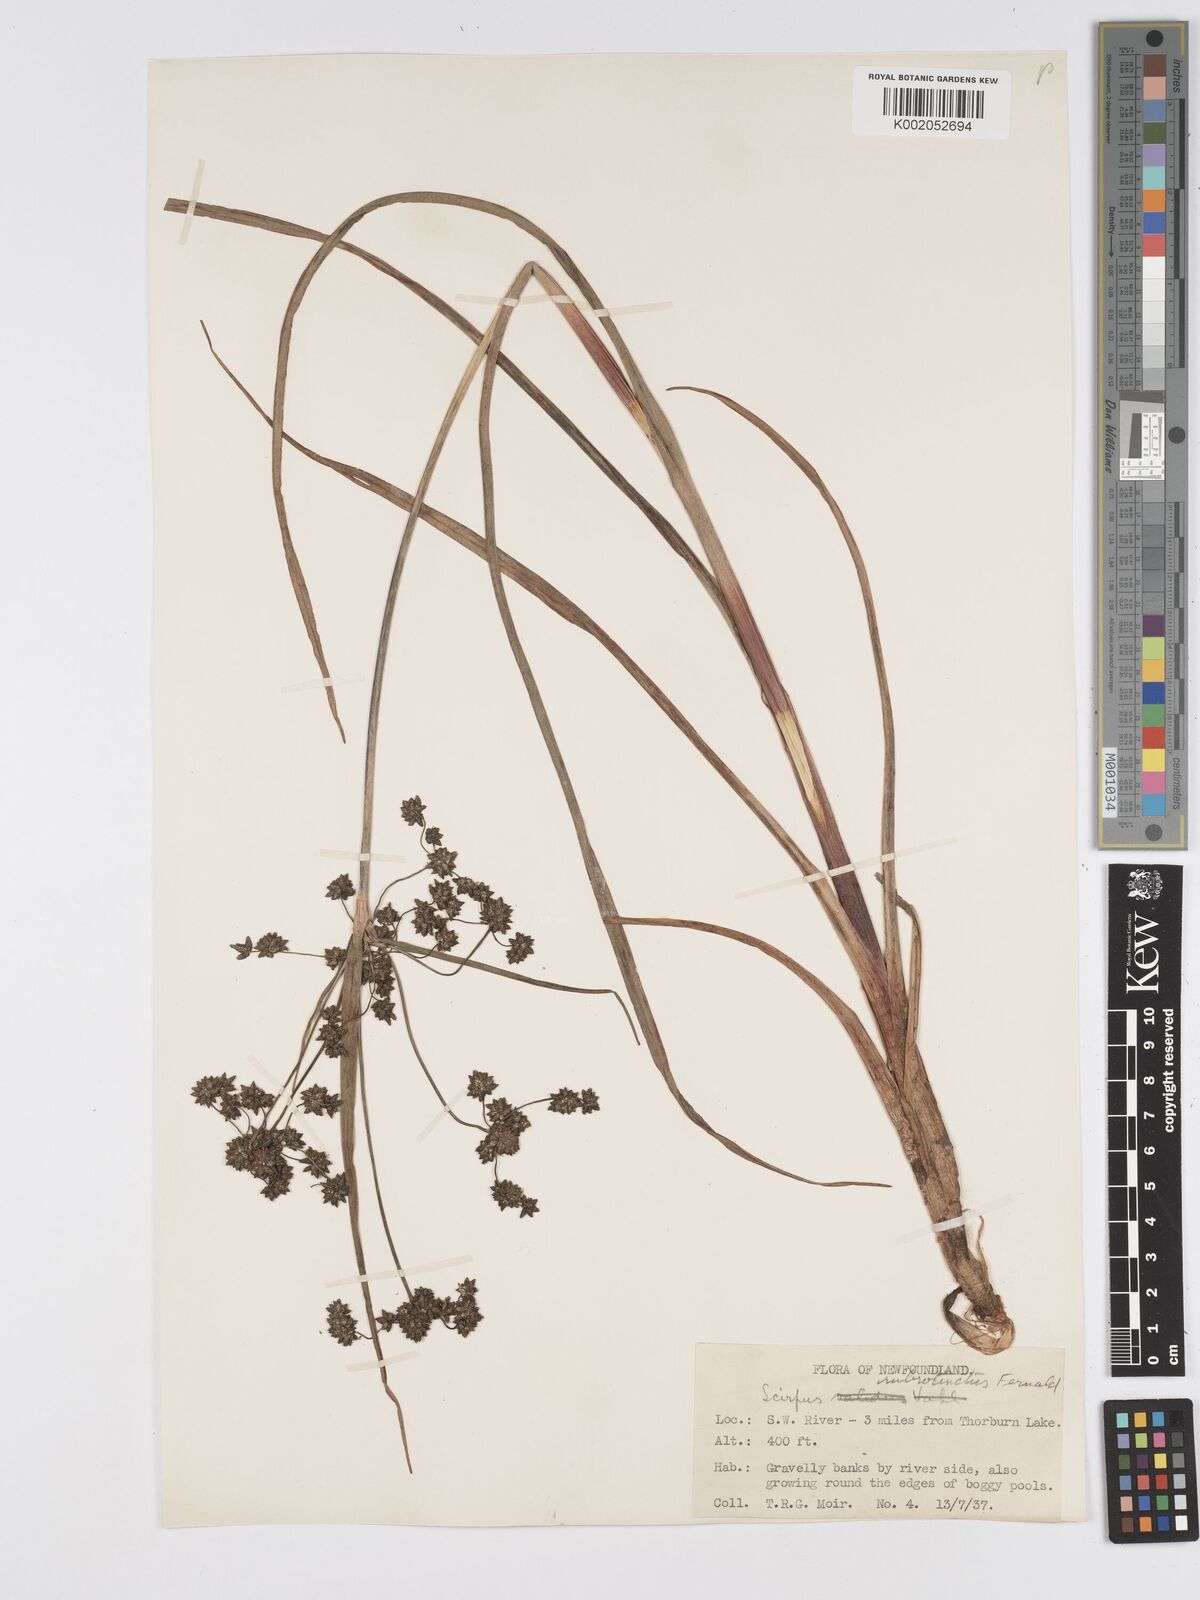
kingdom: Plantae
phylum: Tracheophyta
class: Liliopsida
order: Poales
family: Cyperaceae
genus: Scirpus
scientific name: Scirpus microcarpus
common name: Panicled bulrush
